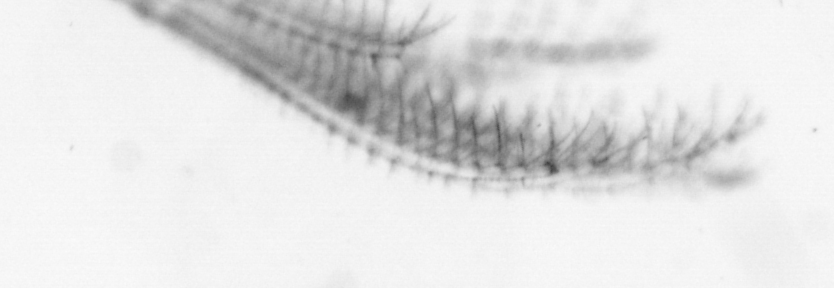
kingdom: Animalia
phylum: Arthropoda
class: Maxillopoda
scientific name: Maxillopoda
